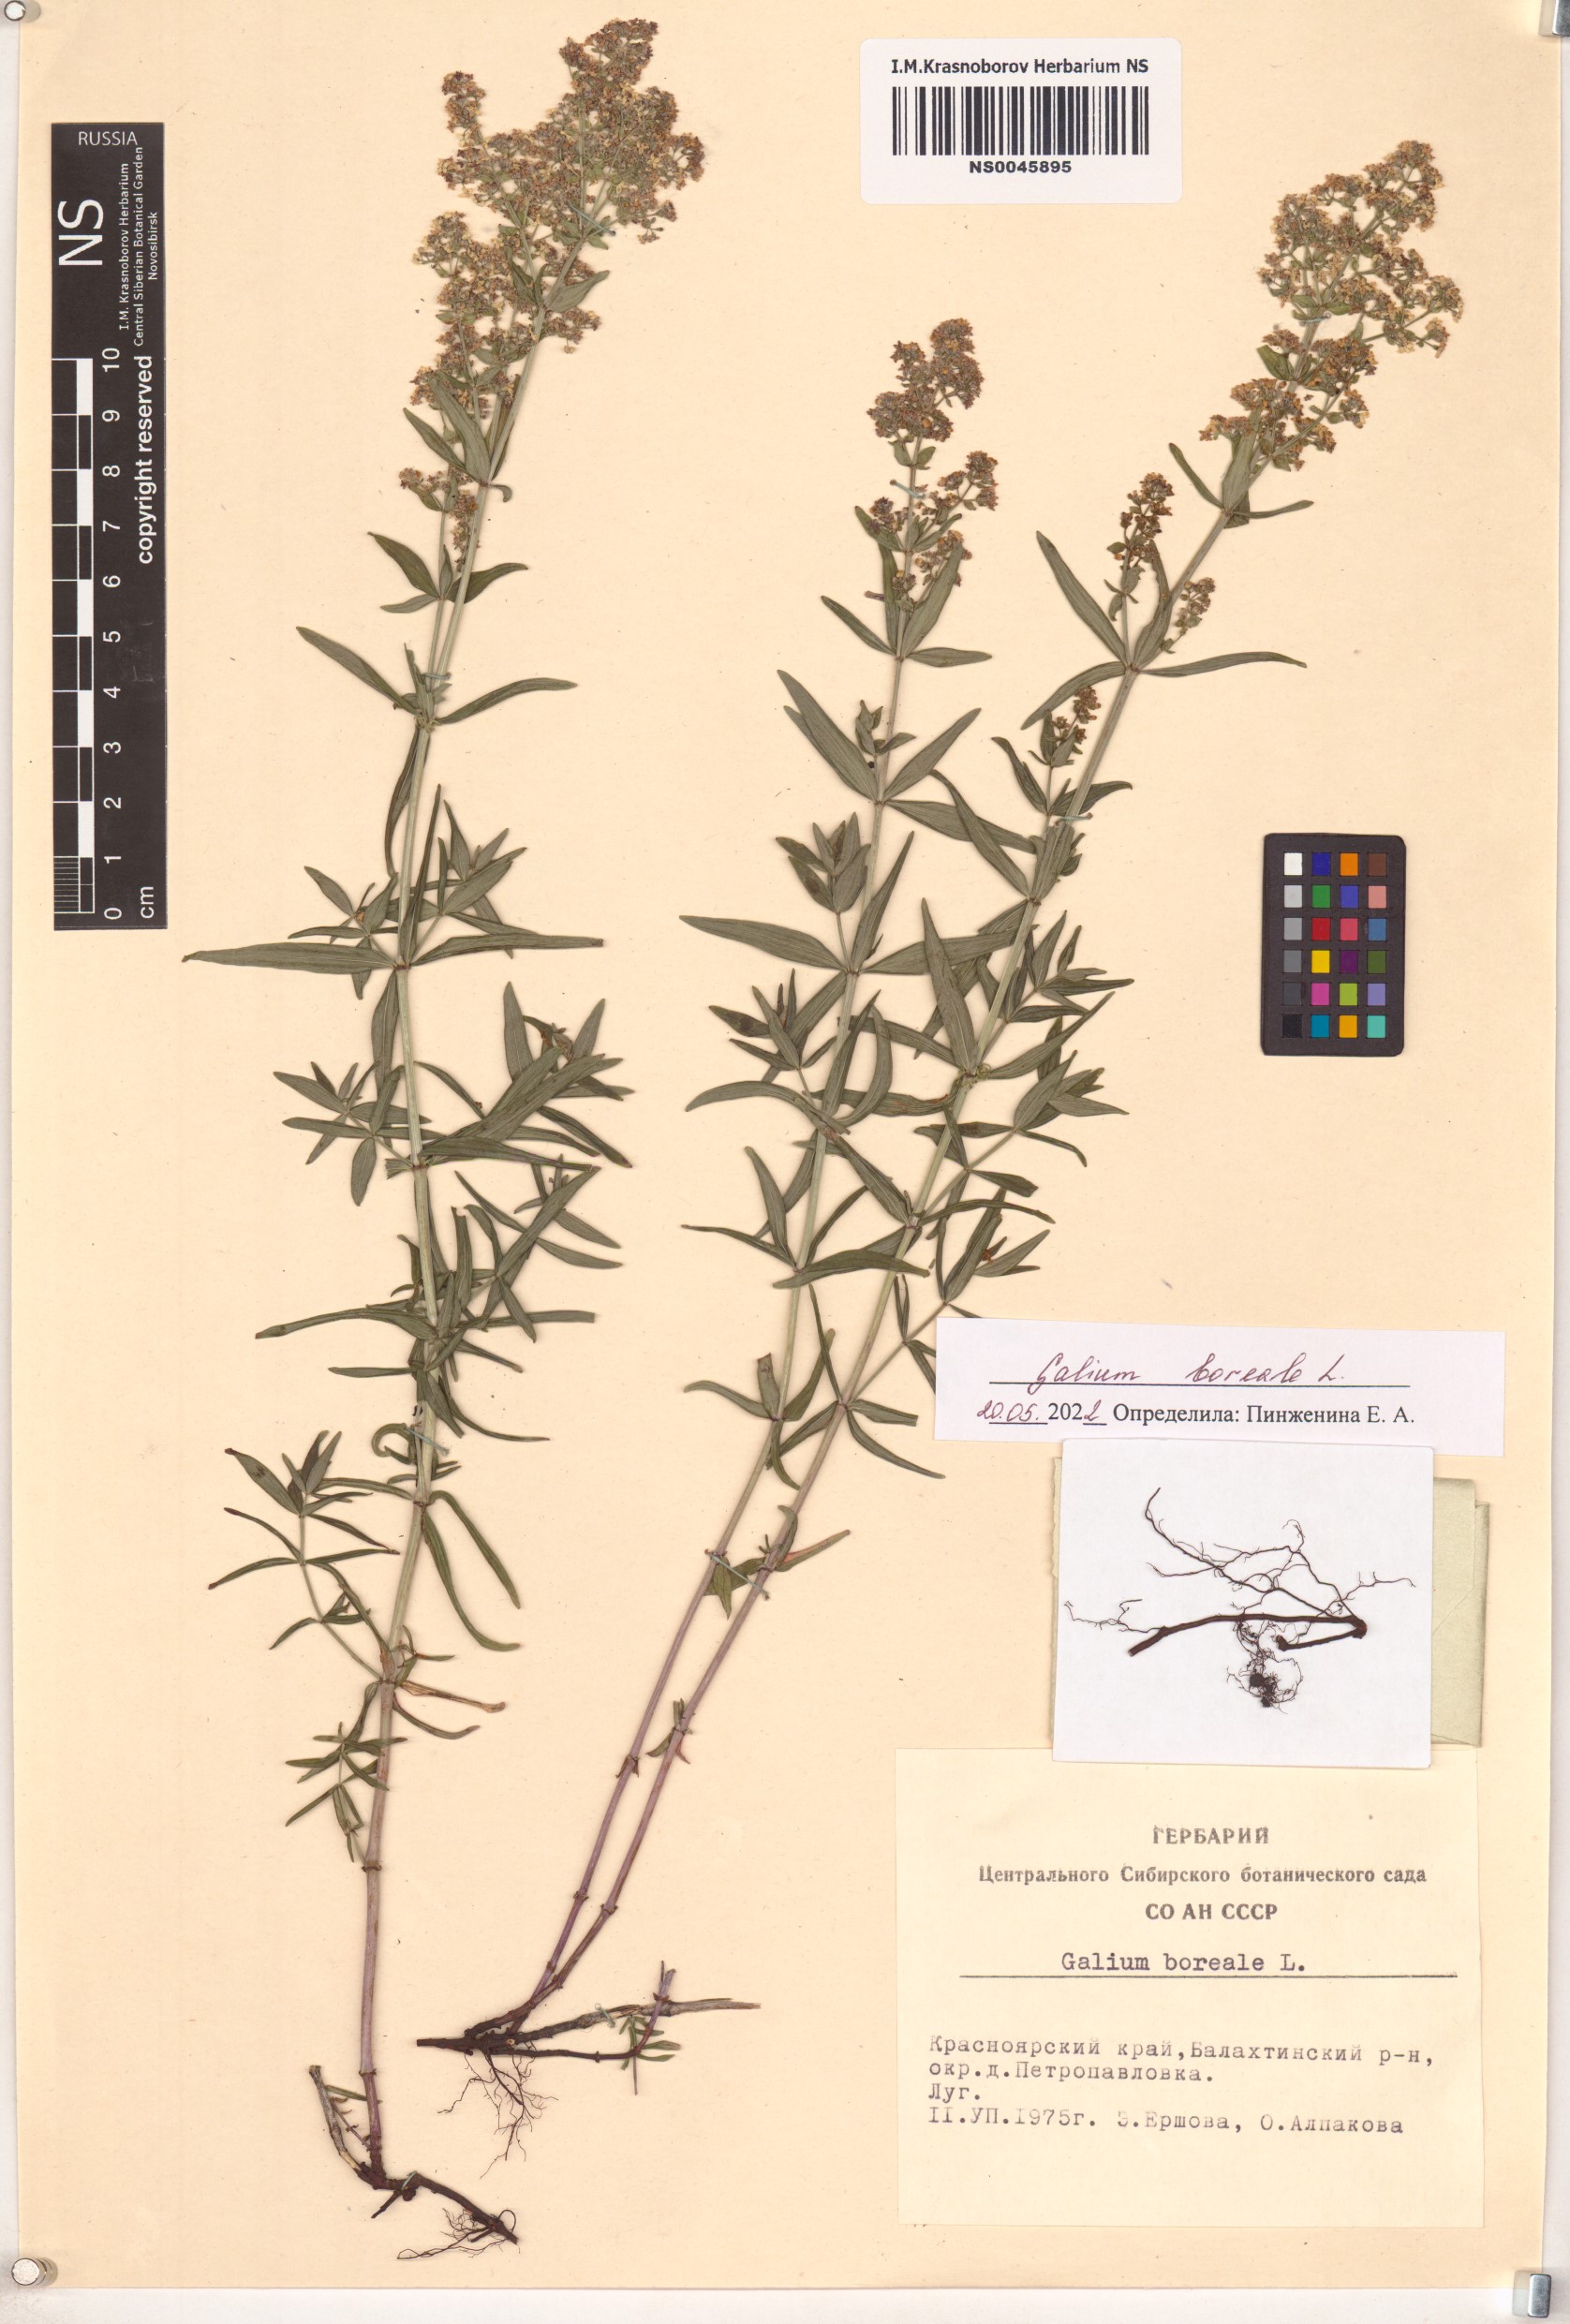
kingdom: Plantae
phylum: Tracheophyta
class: Magnoliopsida
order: Gentianales
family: Rubiaceae
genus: Galium
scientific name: Galium boreale
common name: Northern bedstraw
